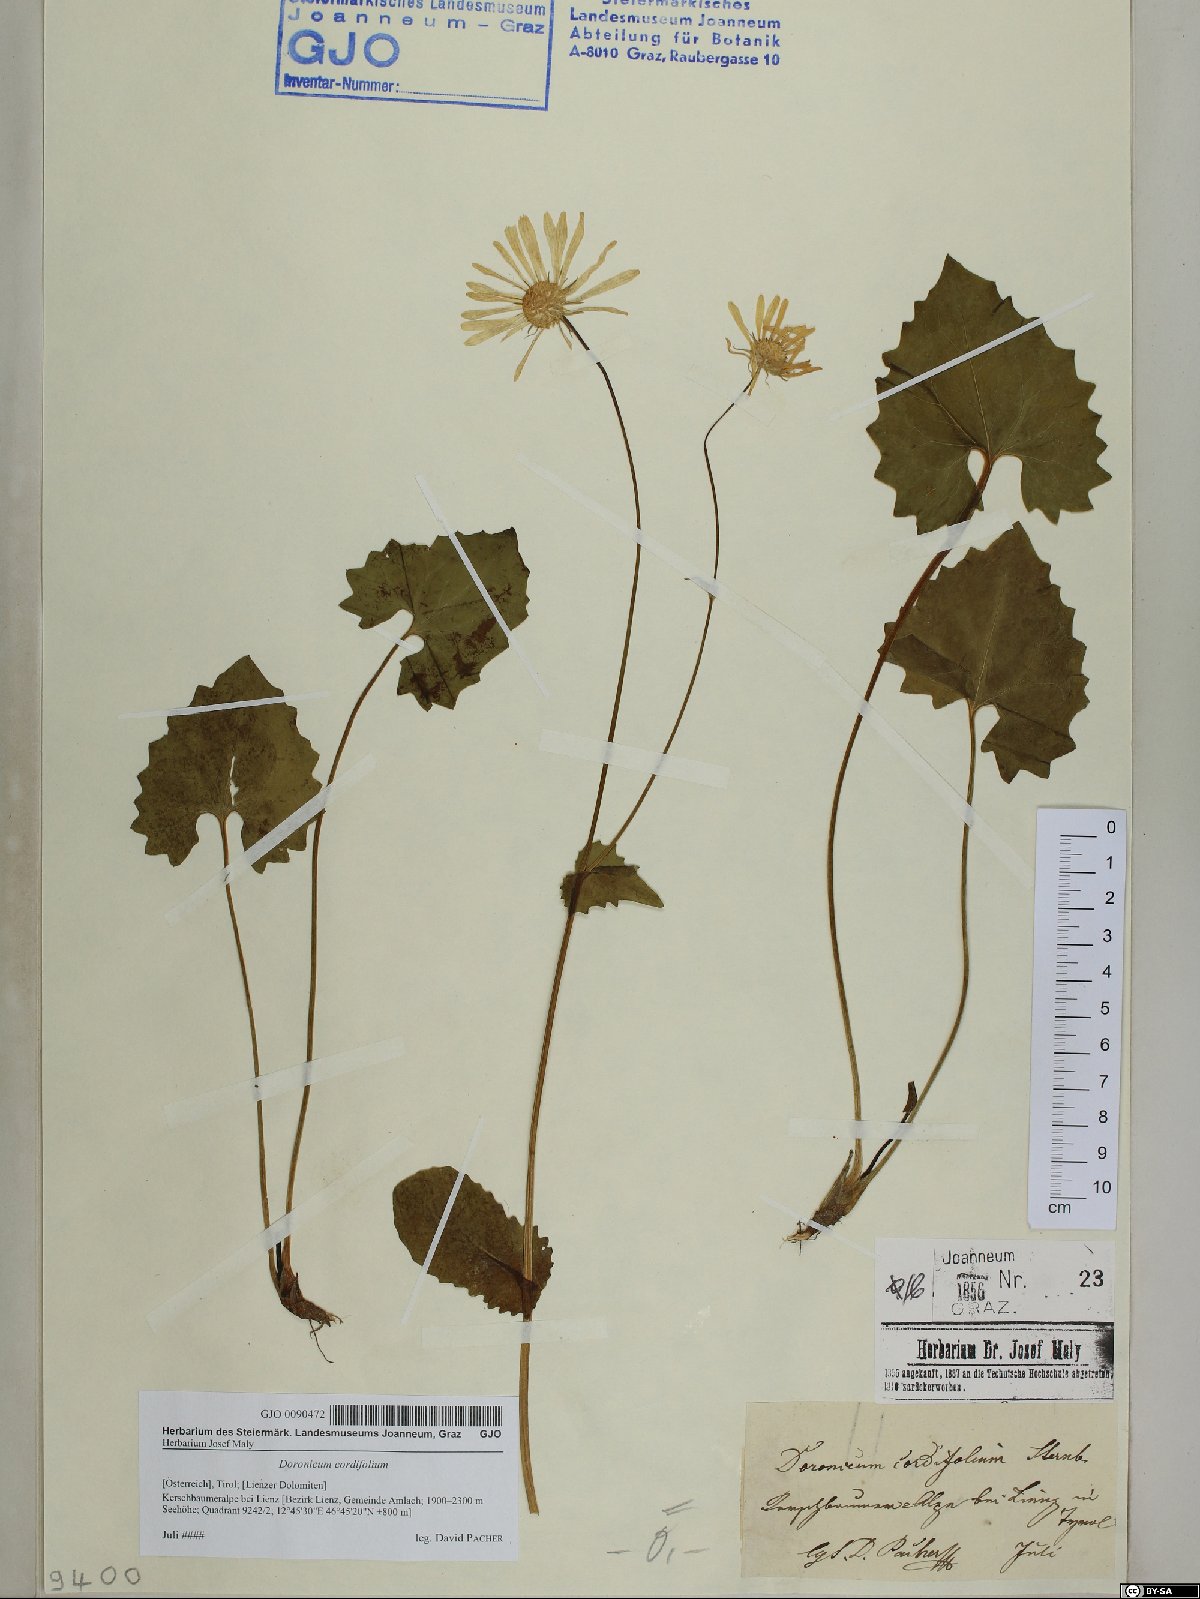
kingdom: Plantae
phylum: Tracheophyta
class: Magnoliopsida
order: Asterales
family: Asteraceae
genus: Doronicum
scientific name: Doronicum columnae
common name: Eastern leopard's-bane
